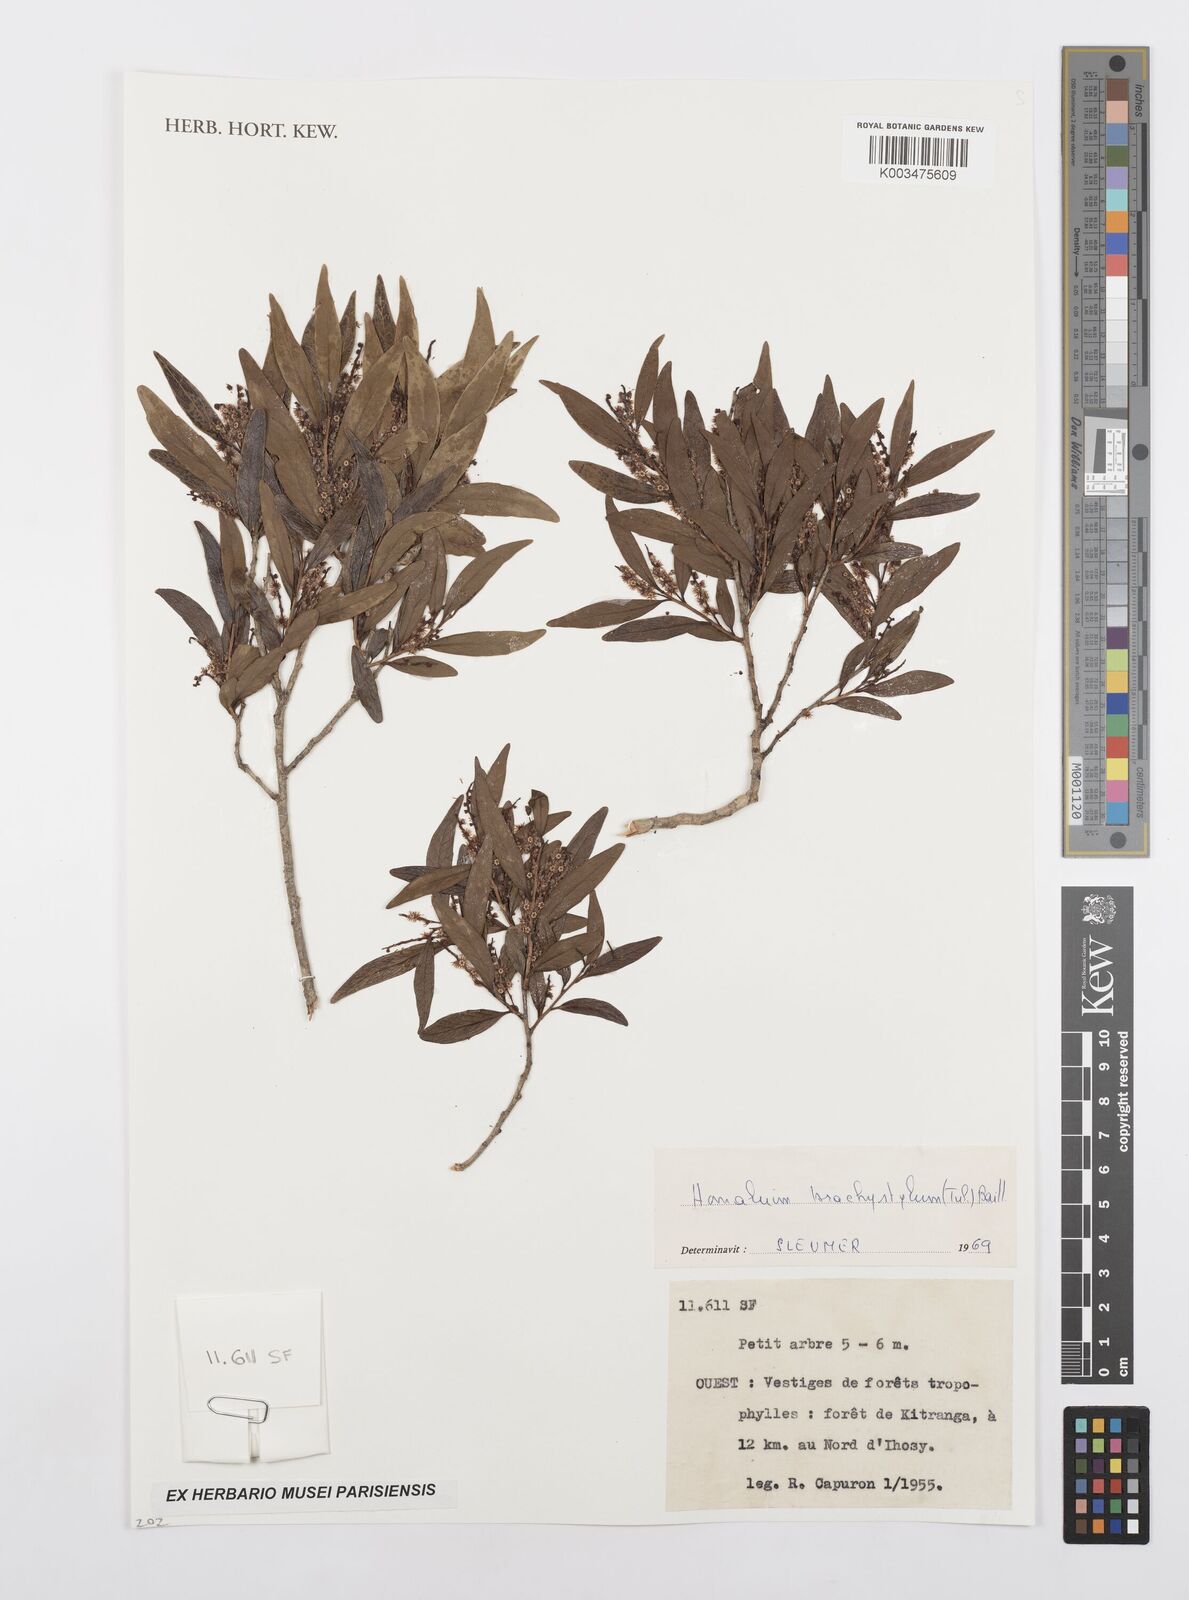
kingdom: Plantae
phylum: Tracheophyta
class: Magnoliopsida
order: Malpighiales
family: Salicaceae
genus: Homalium
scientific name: Homalium brachystylis
